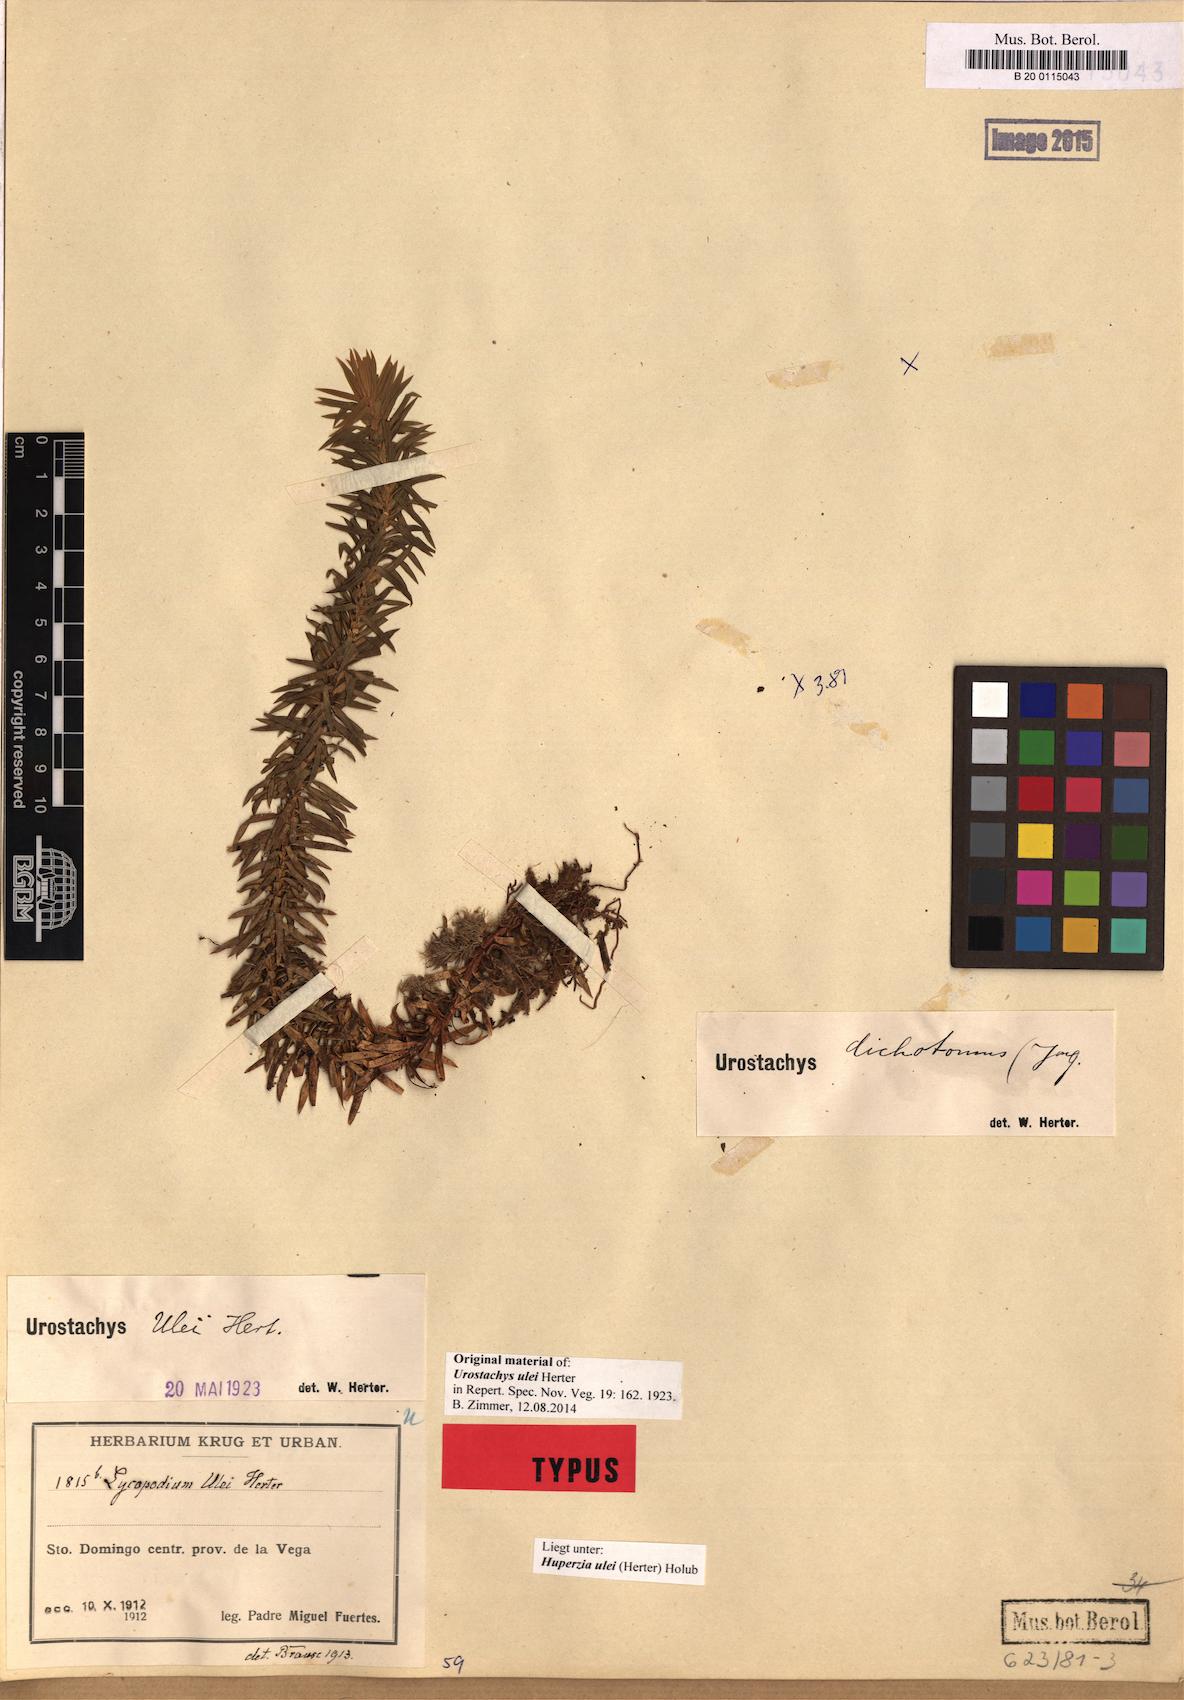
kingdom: Plantae
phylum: Tracheophyta
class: Lycopodiopsida
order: Lycopodiales
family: Lycopodiaceae
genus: Phlegmariurus
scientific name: Phlegmariurus sellowianus
